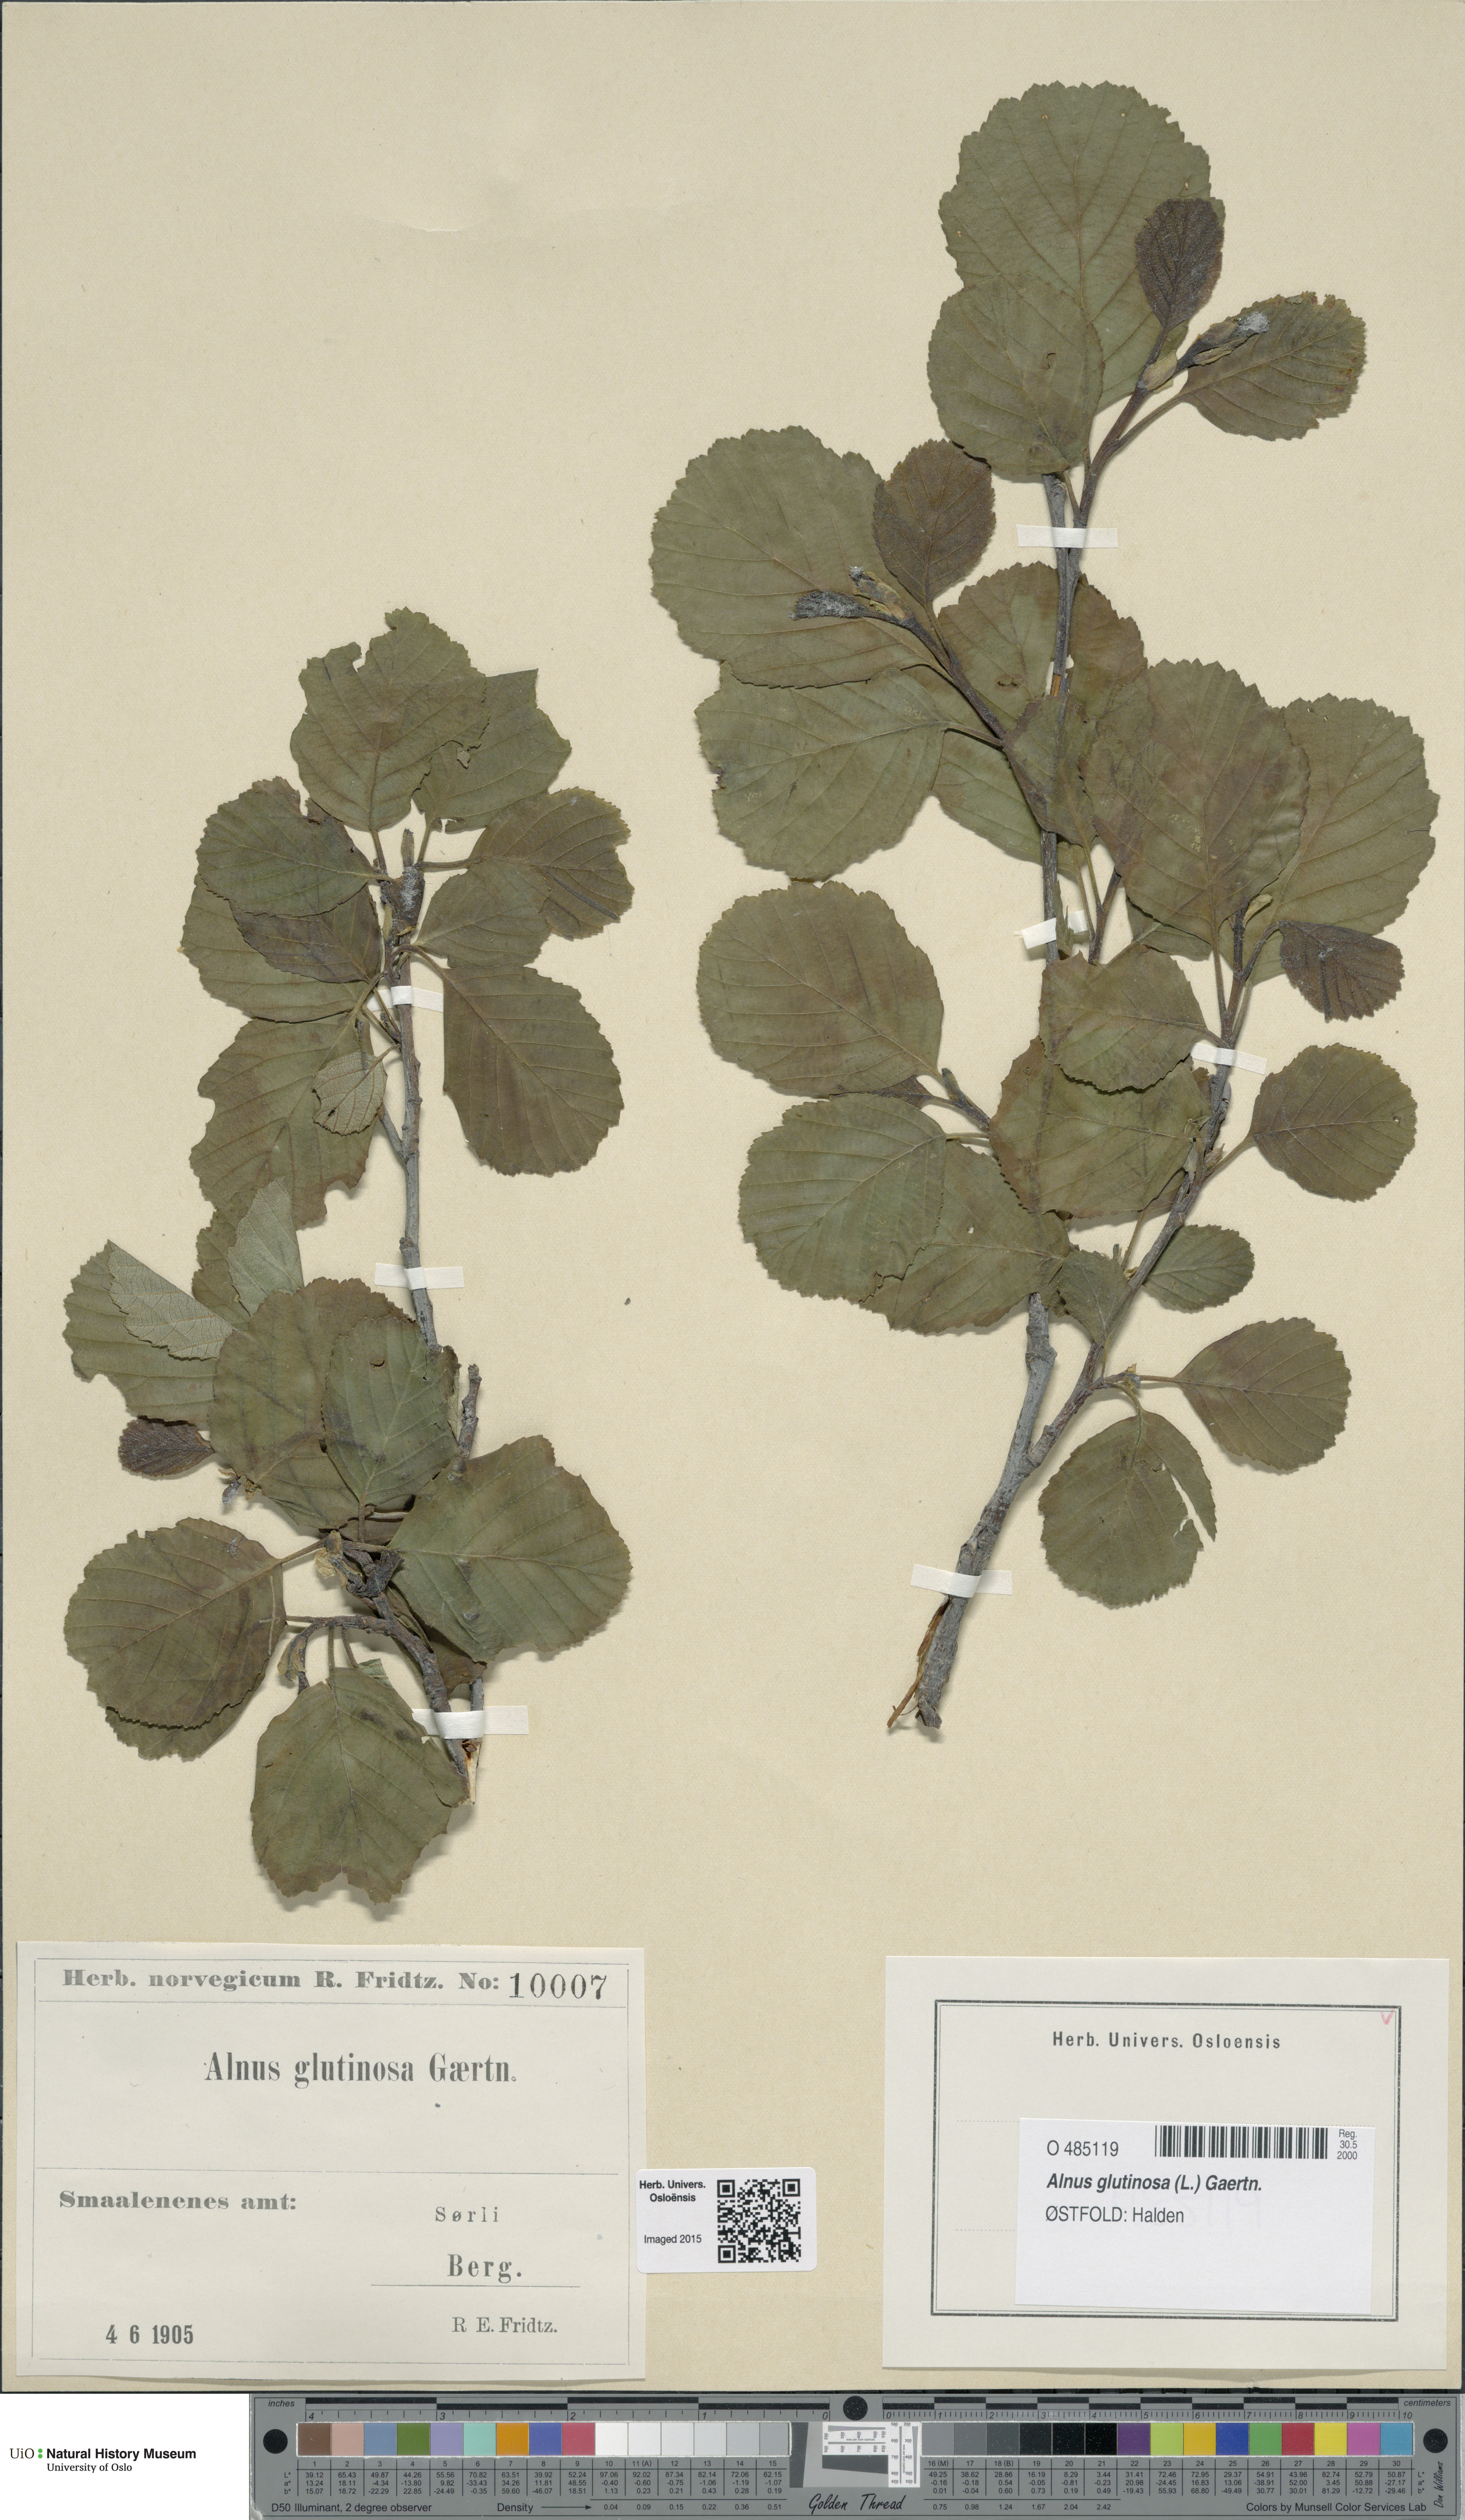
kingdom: Plantae
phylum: Tracheophyta
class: Magnoliopsida
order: Fagales
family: Betulaceae
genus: Alnus
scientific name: Alnus glutinosa
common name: Black alder
